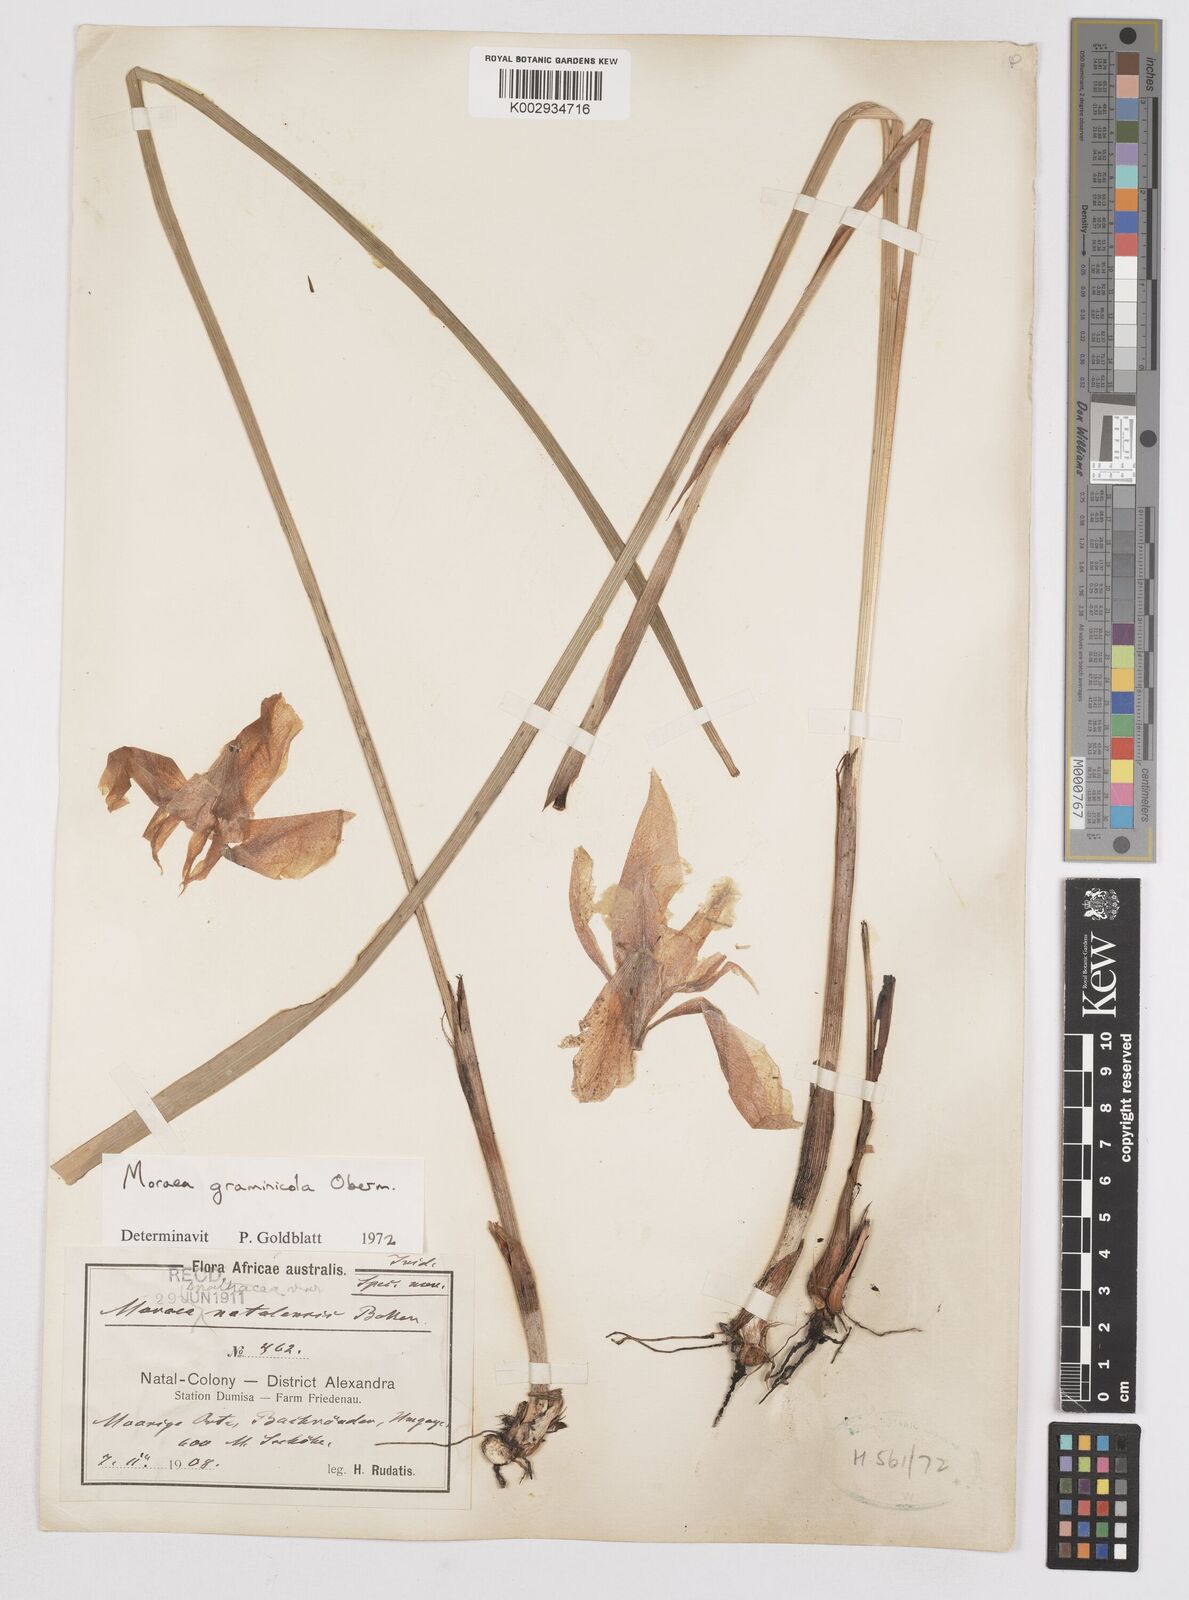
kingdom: Plantae
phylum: Tracheophyta
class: Liliopsida
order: Asparagales
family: Iridaceae
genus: Moraea
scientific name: Moraea graminicola
